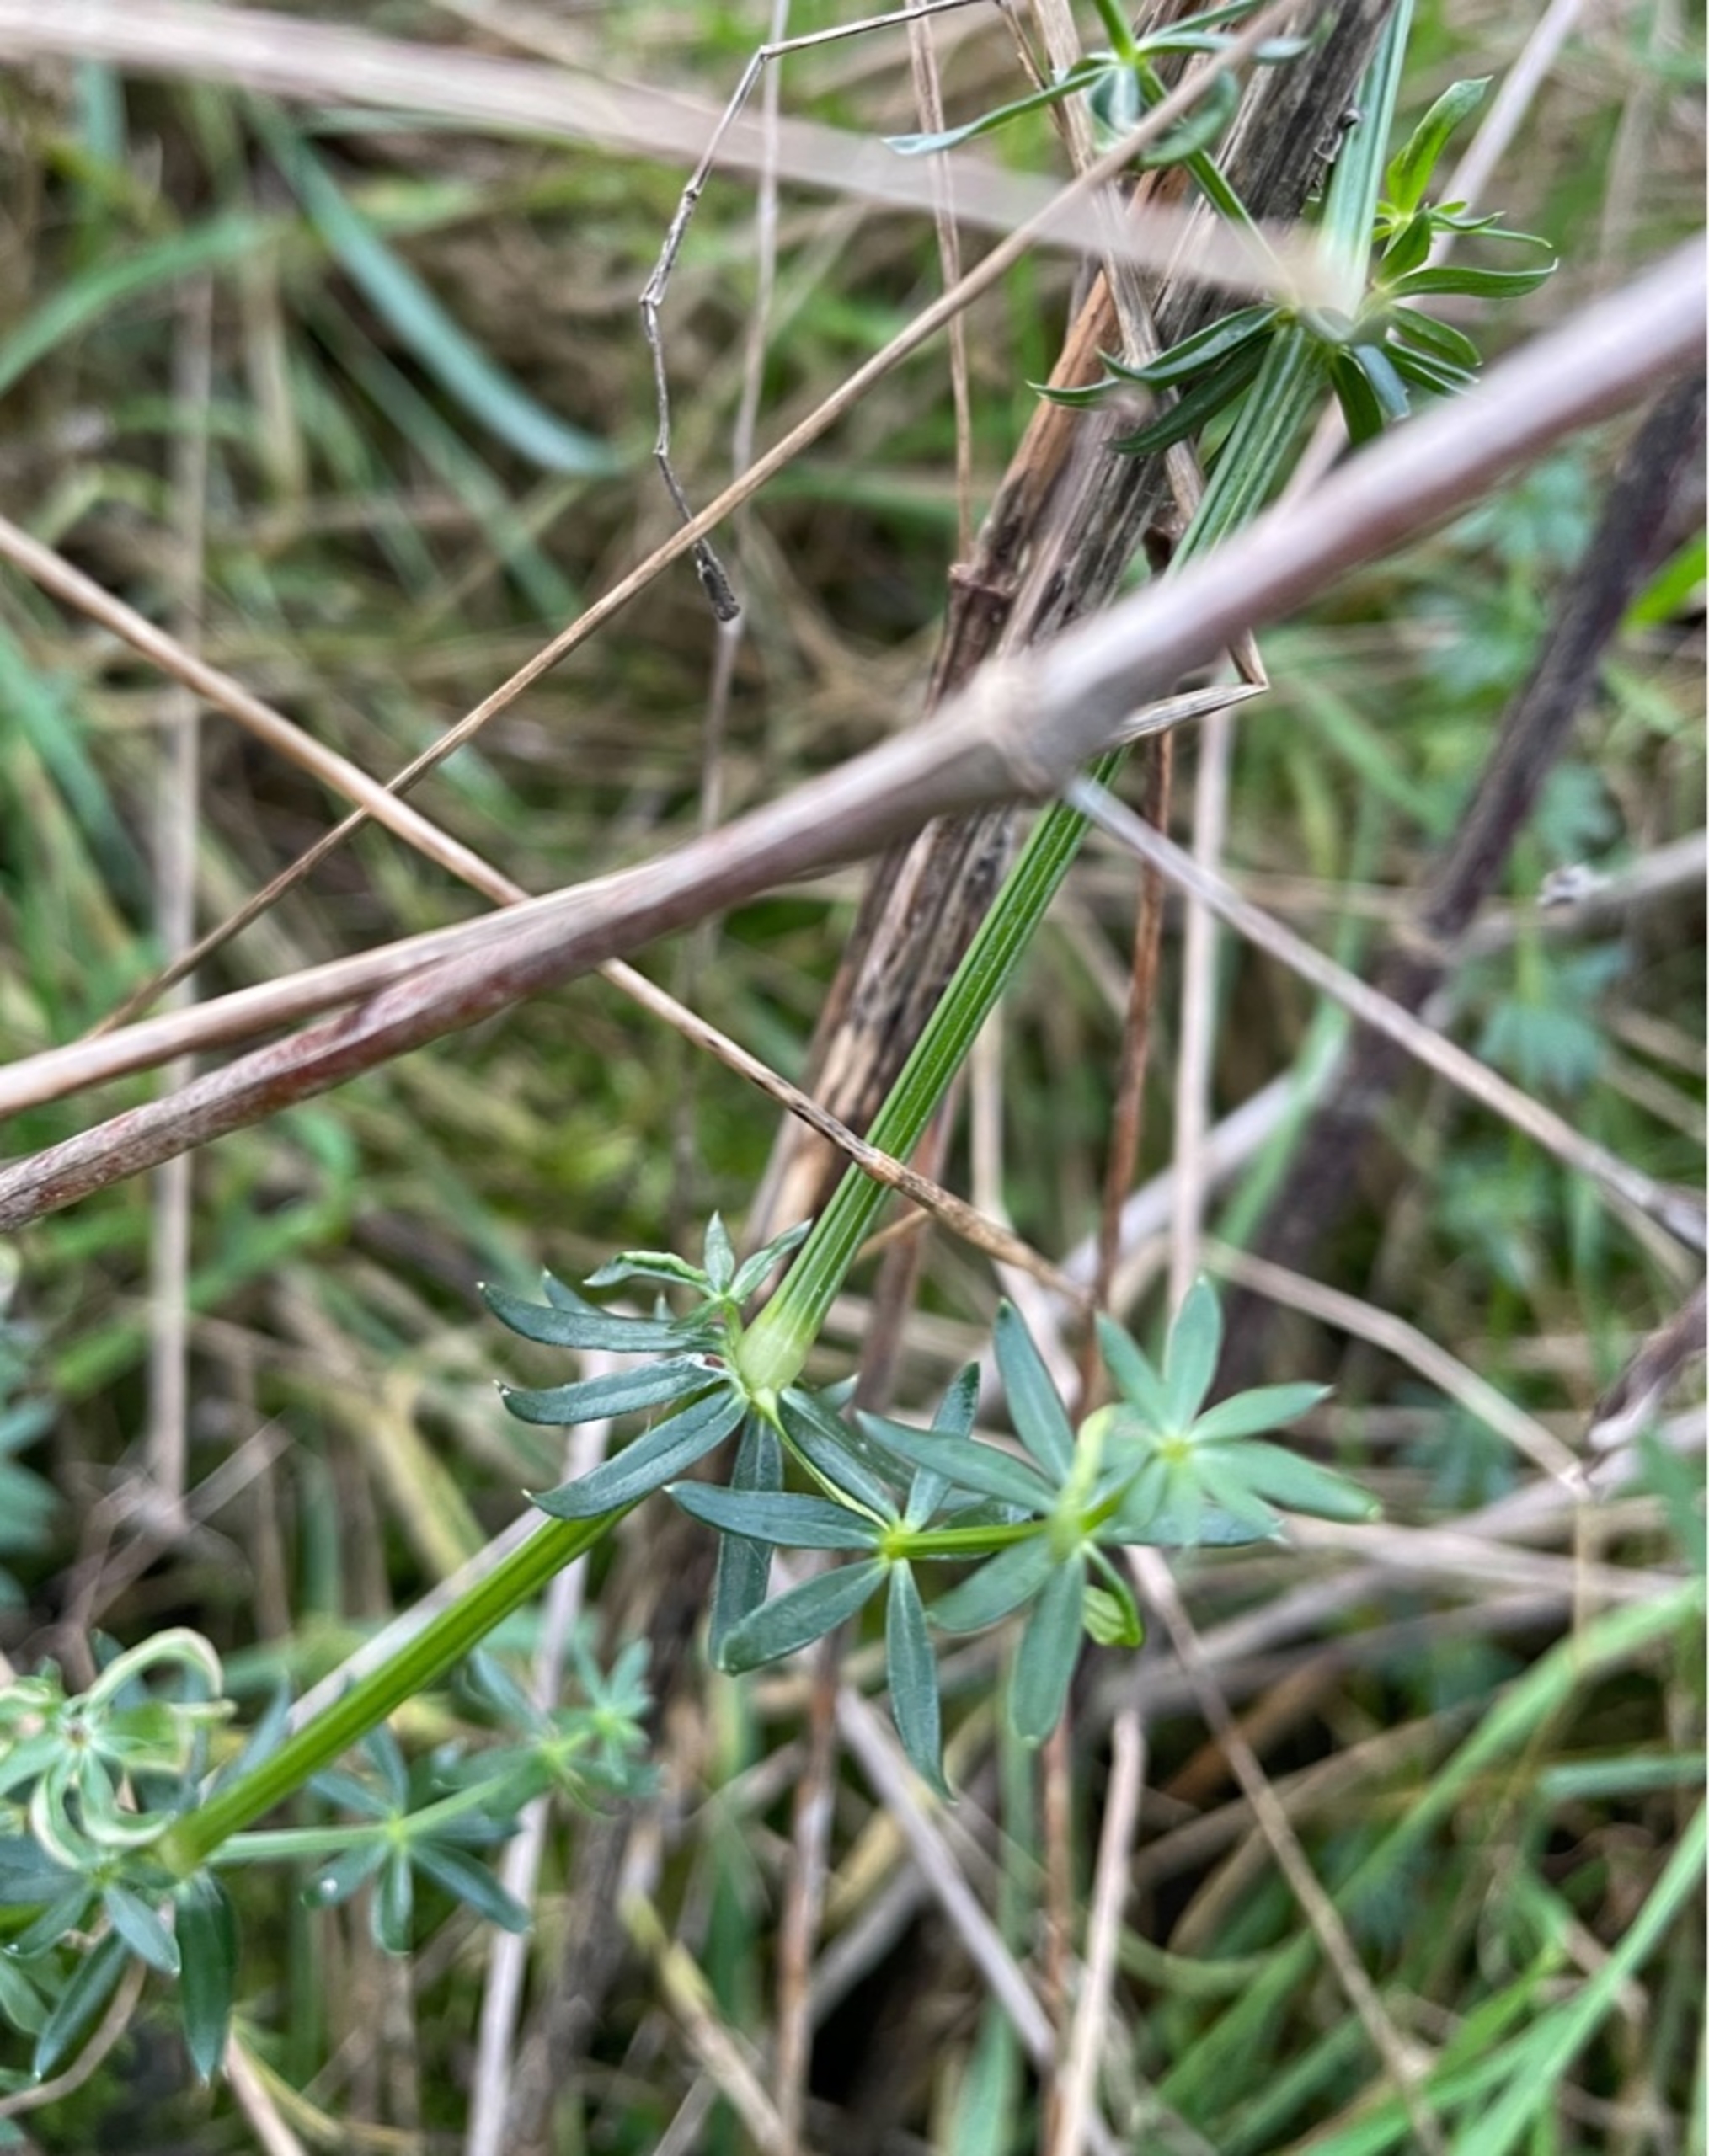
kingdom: Plantae
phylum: Tracheophyta
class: Magnoliopsida
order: Gentianales
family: Rubiaceae
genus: Galium
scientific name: Galium mollugo
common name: Hvid snerre
